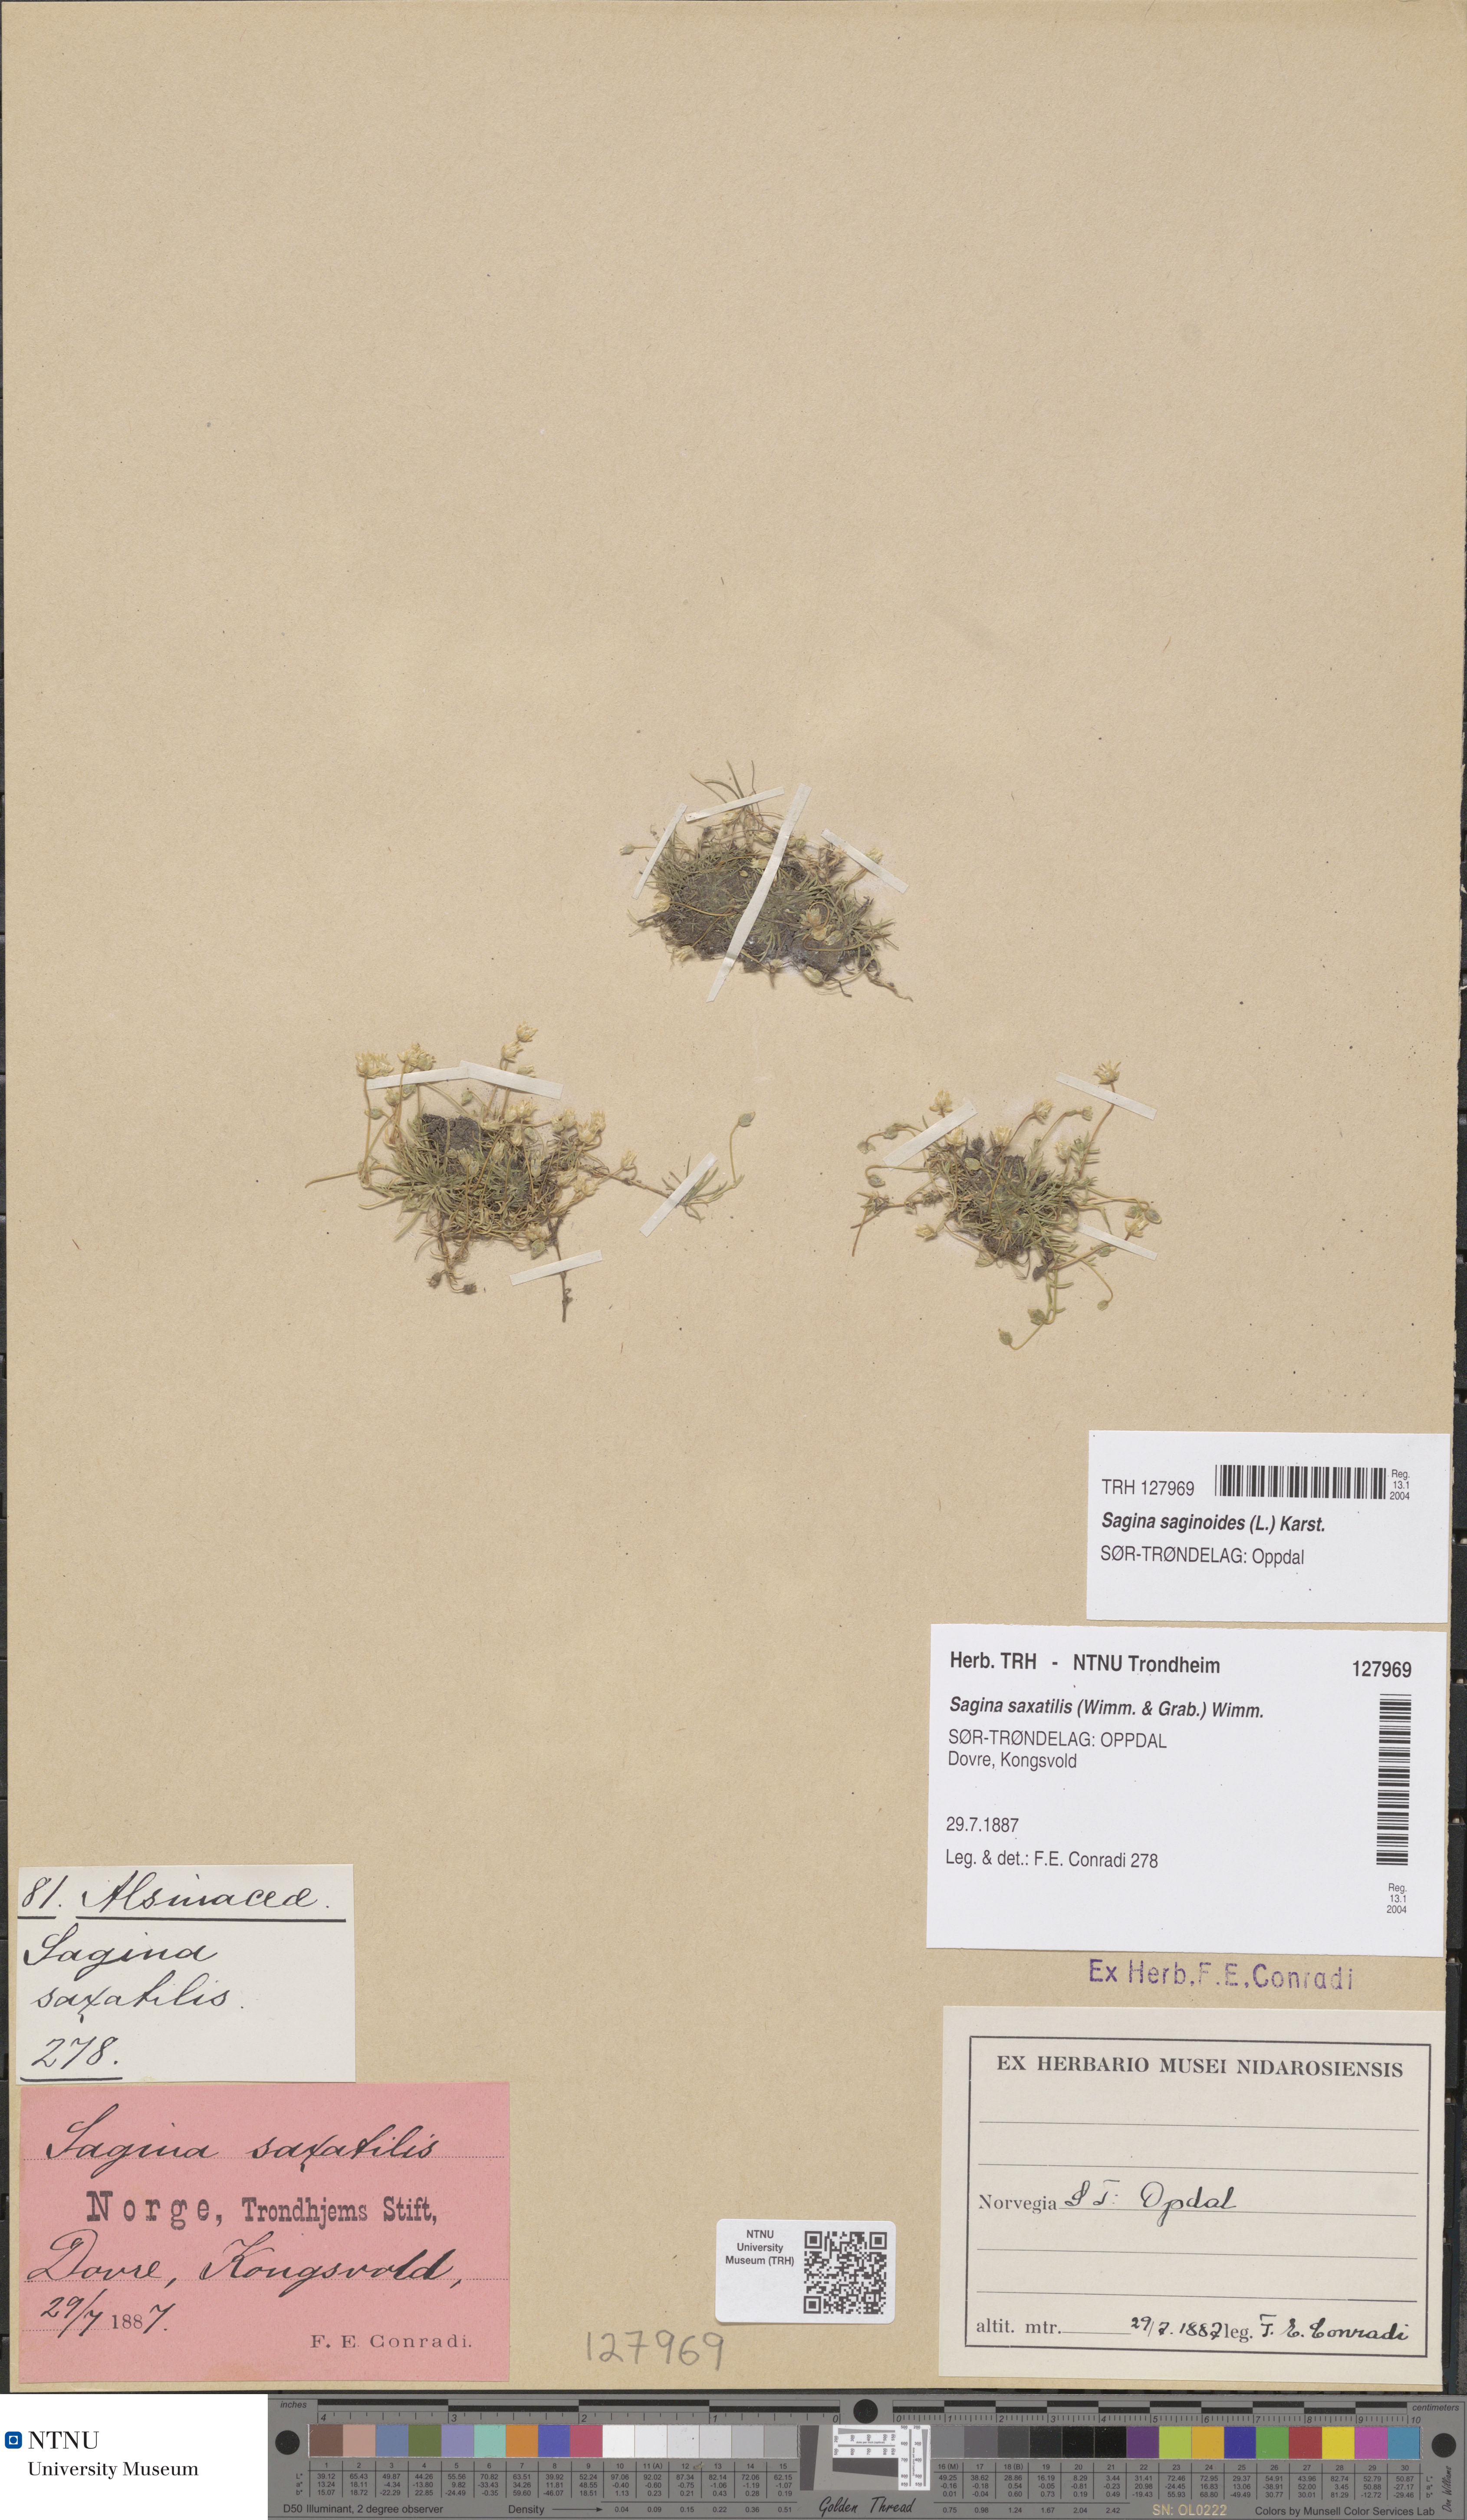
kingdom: Plantae
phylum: Tracheophyta
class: Magnoliopsida
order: Caryophyllales
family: Caryophyllaceae
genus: Sagina
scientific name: Sagina saginoides
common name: Alpine pearlwort
